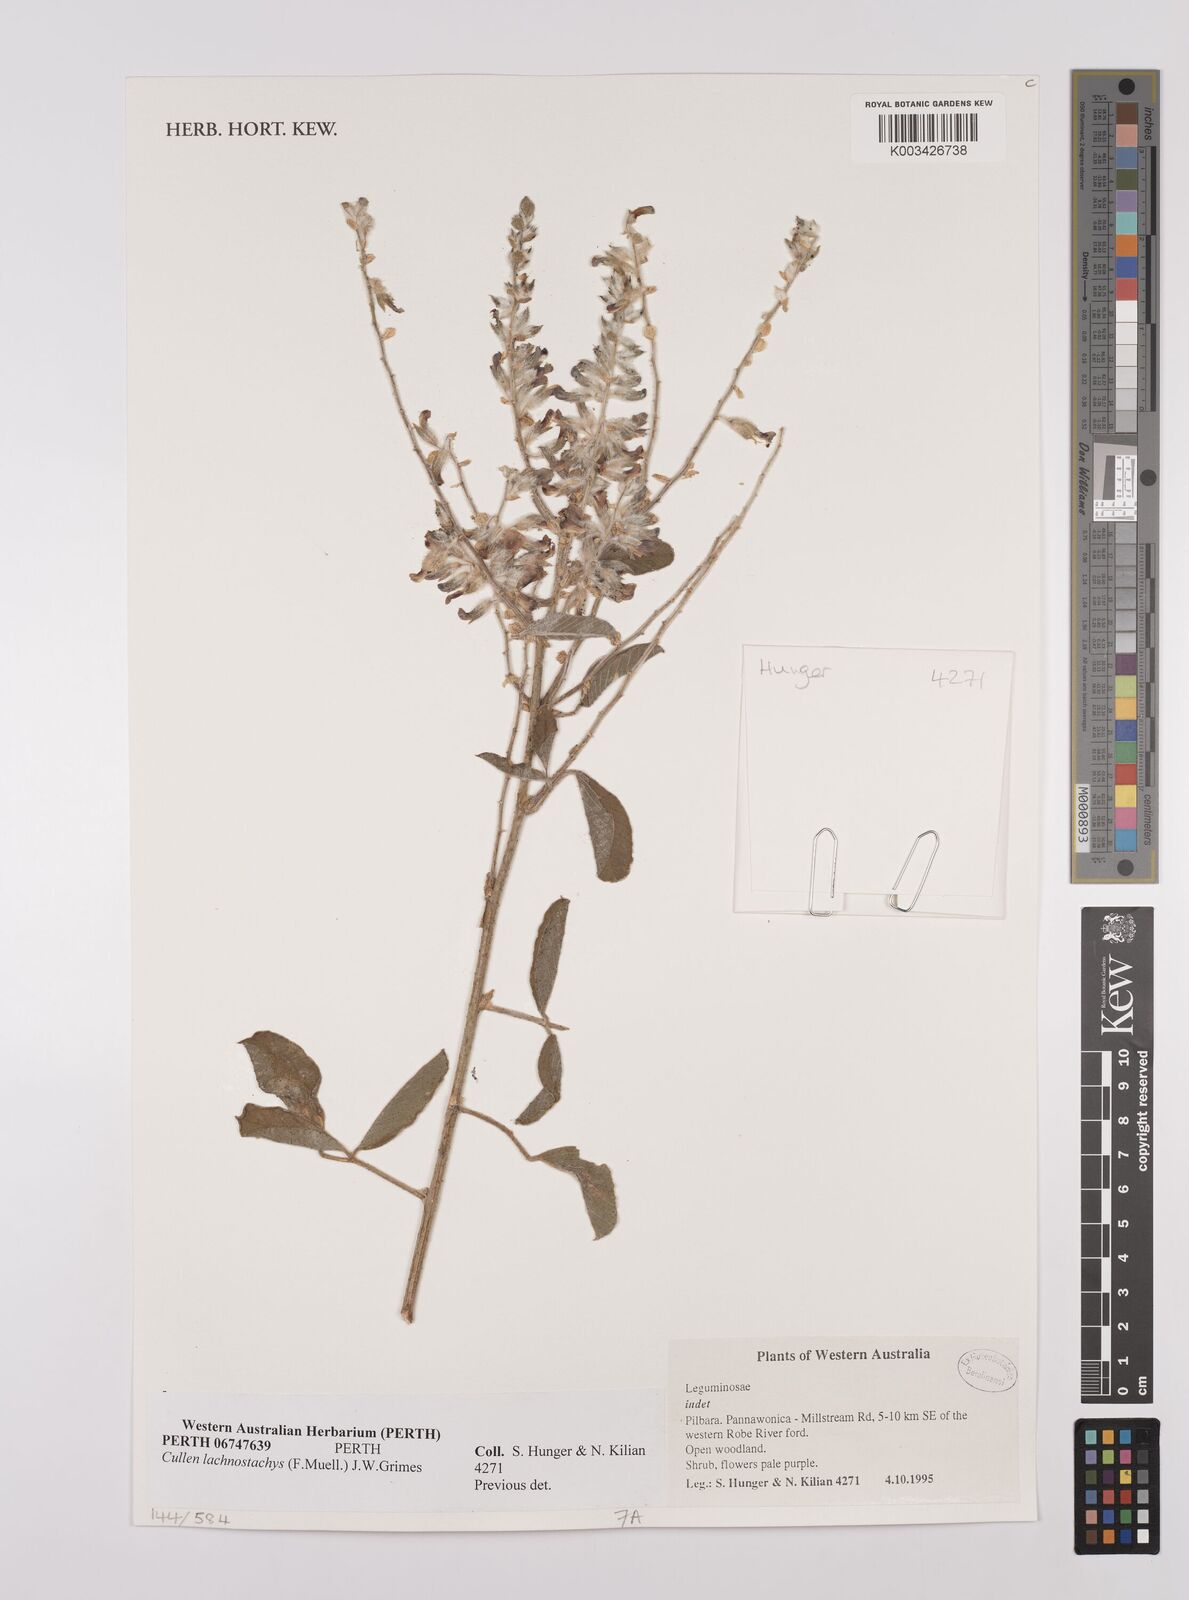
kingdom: Plantae
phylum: Tracheophyta
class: Magnoliopsida
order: Fabales
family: Fabaceae
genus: Cullen
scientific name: Cullen lachnostachys
